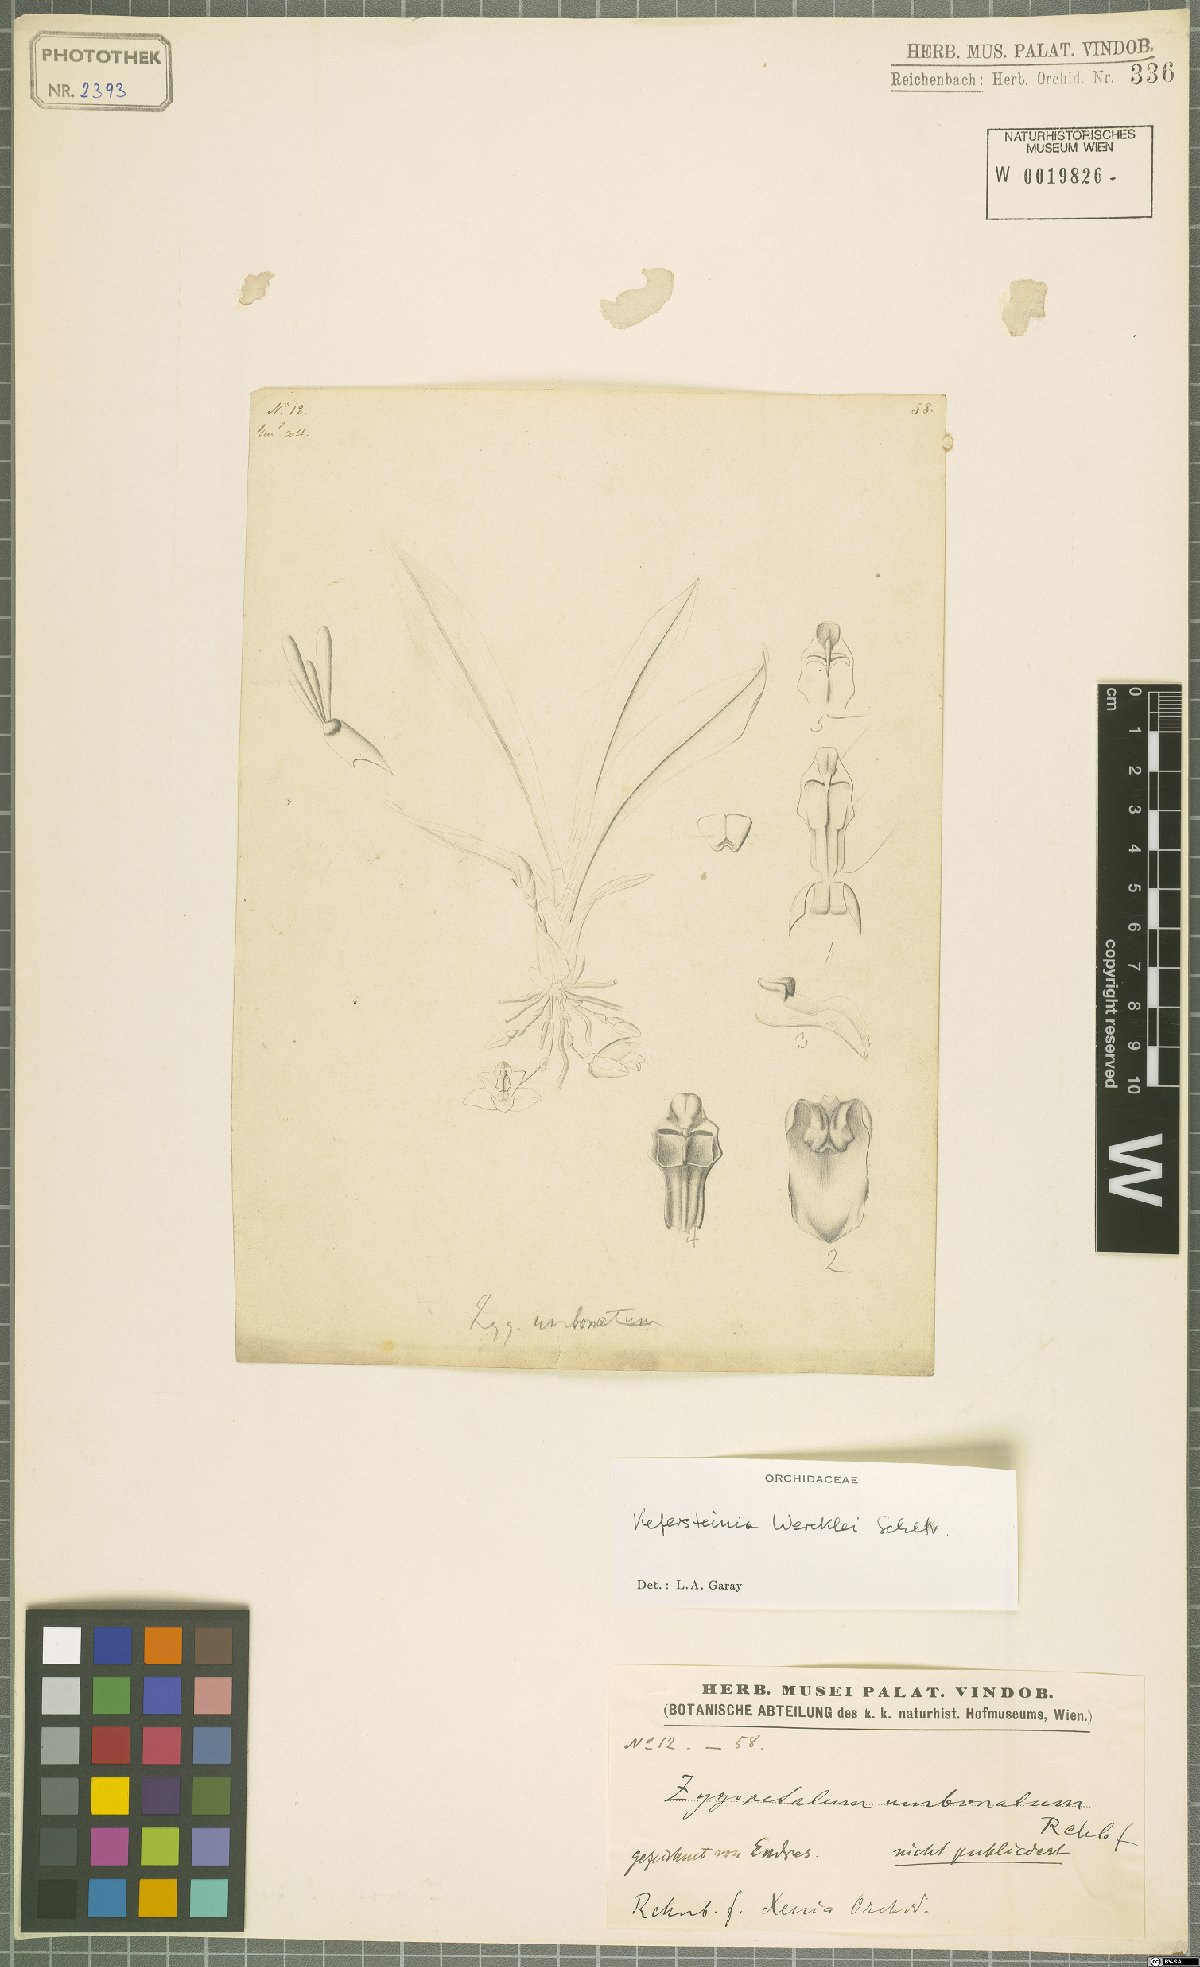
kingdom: Plantae
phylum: Tracheophyta
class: Liliopsida
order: Asparagales
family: Orchidaceae
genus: Kefersteinia
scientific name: Kefersteinia wercklei
